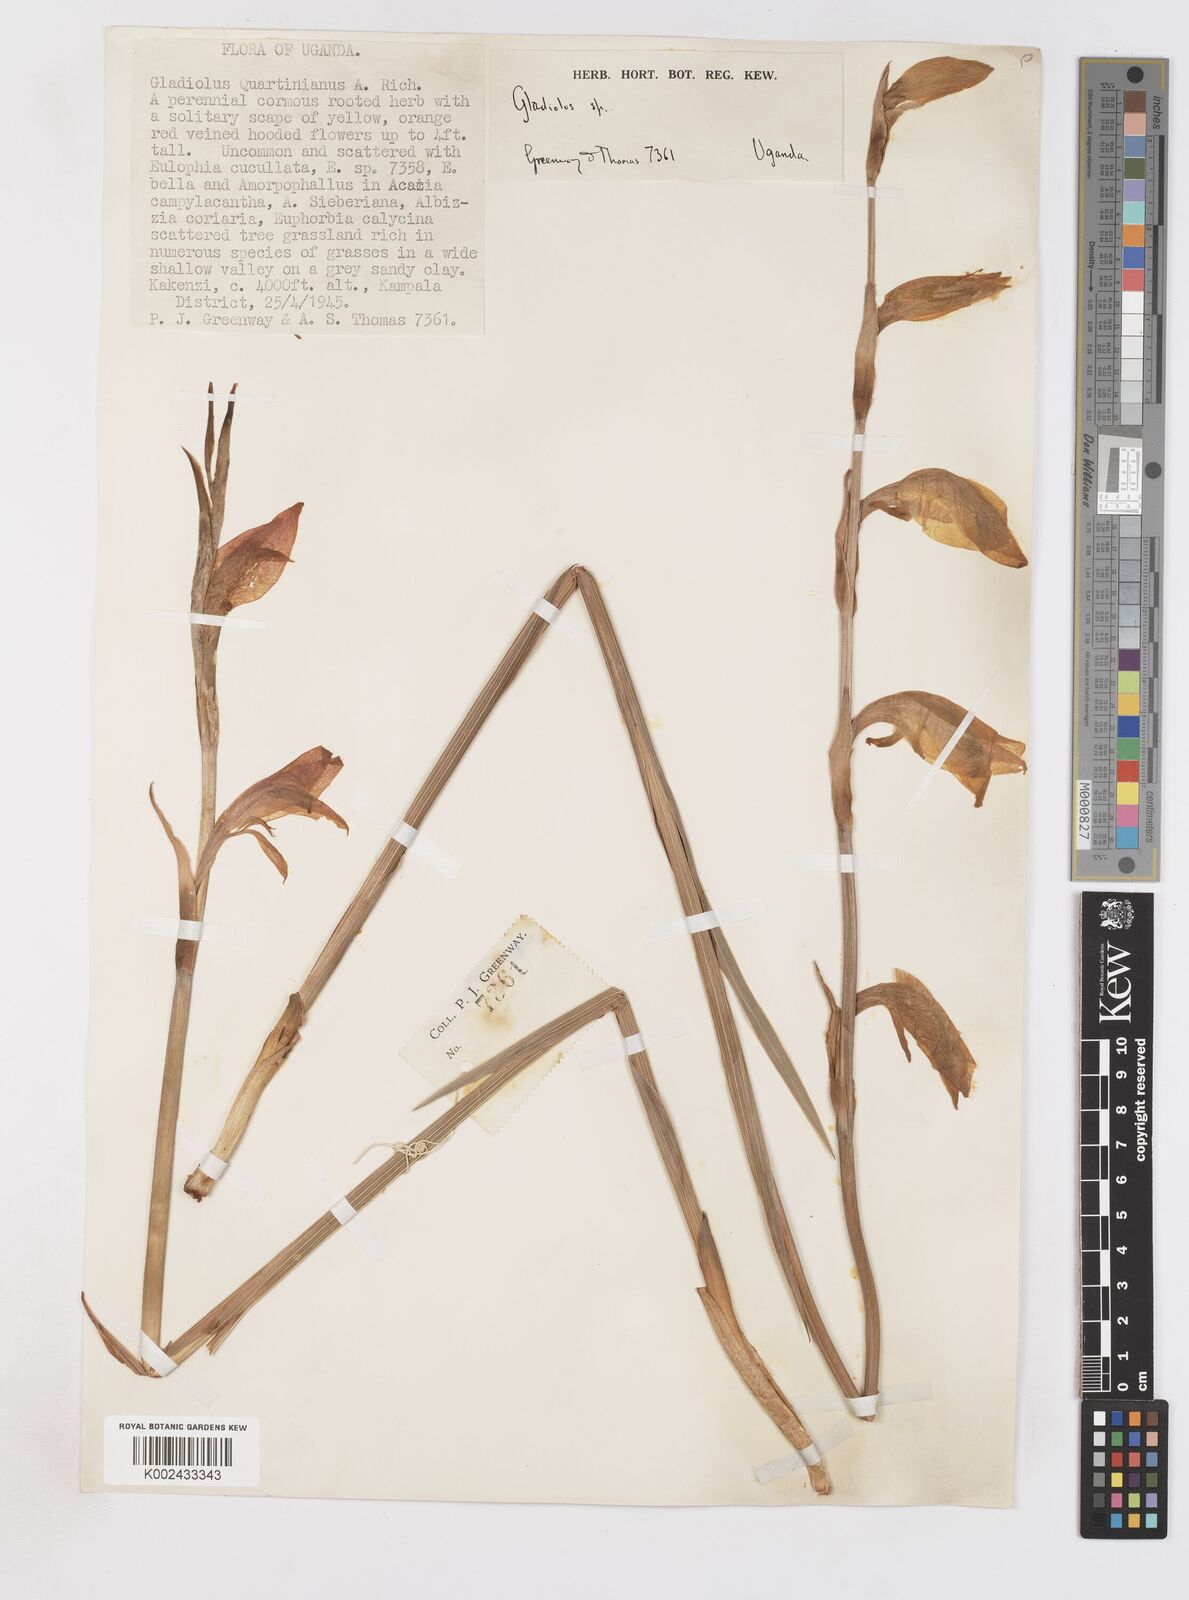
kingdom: Plantae
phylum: Tracheophyta
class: Liliopsida
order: Asparagales
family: Iridaceae
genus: Gladiolus
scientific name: Gladiolus dalenii
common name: Cornflag
